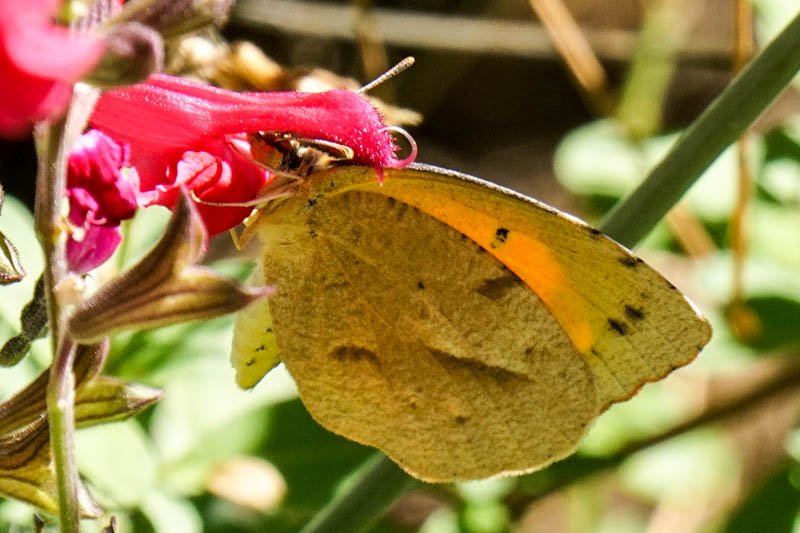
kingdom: Animalia
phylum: Arthropoda
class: Insecta
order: Lepidoptera
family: Pieridae
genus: Abaeis
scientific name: Abaeis nicippe
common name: Sleepy Orange
